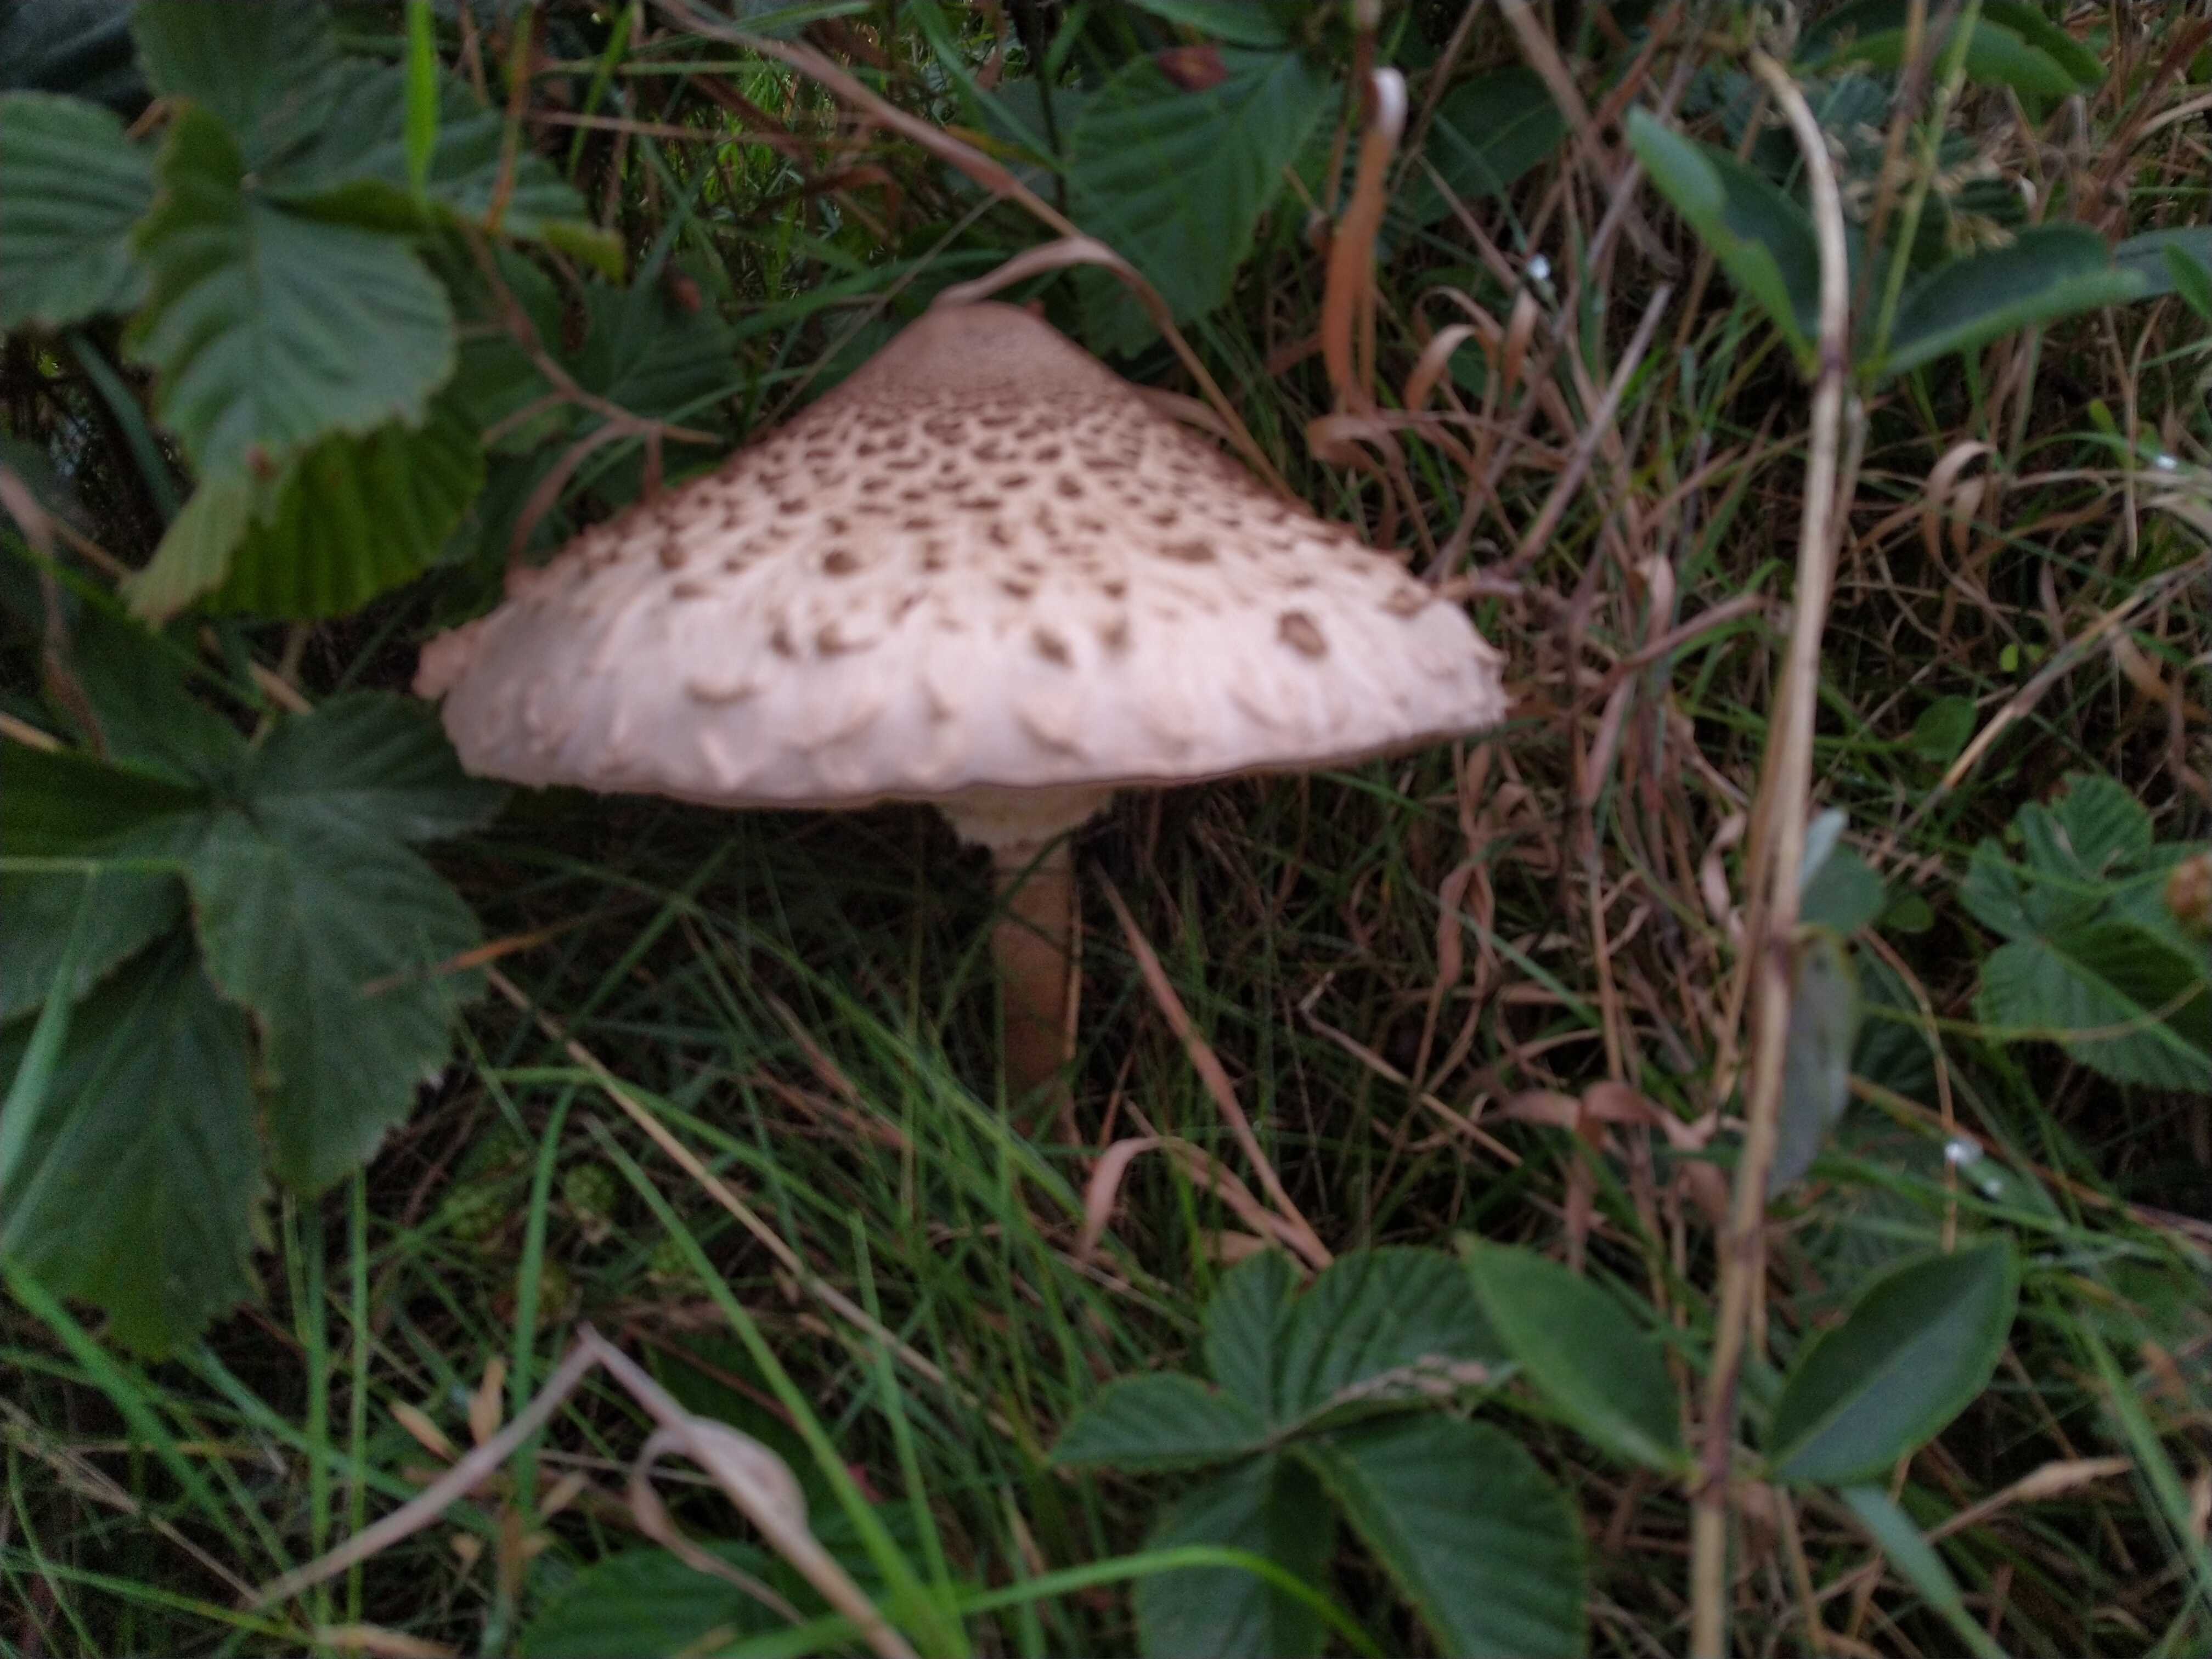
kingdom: Fungi
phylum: Basidiomycota
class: Agaricomycetes
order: Agaricales
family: Agaricaceae
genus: Macrolepiota
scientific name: Macrolepiota procera
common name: stor kæmpeparasolhat
